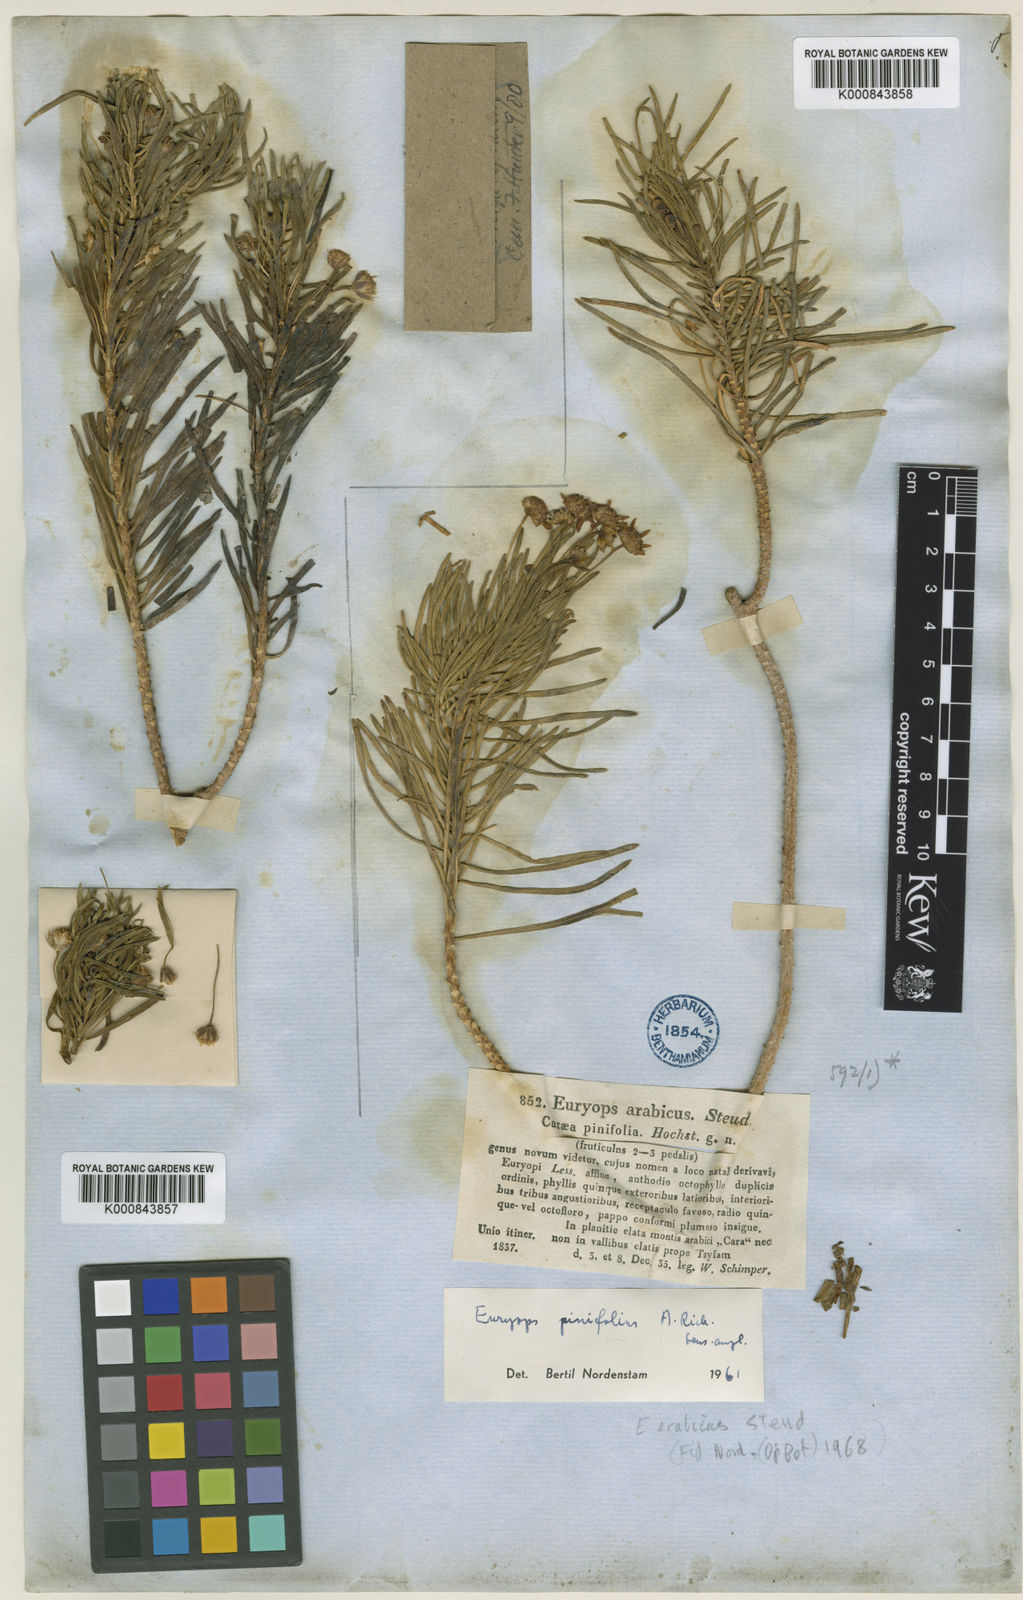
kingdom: Plantae
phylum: Tracheophyta
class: Magnoliopsida
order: Asterales
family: Asteraceae
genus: Euryops
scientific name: Euryops
